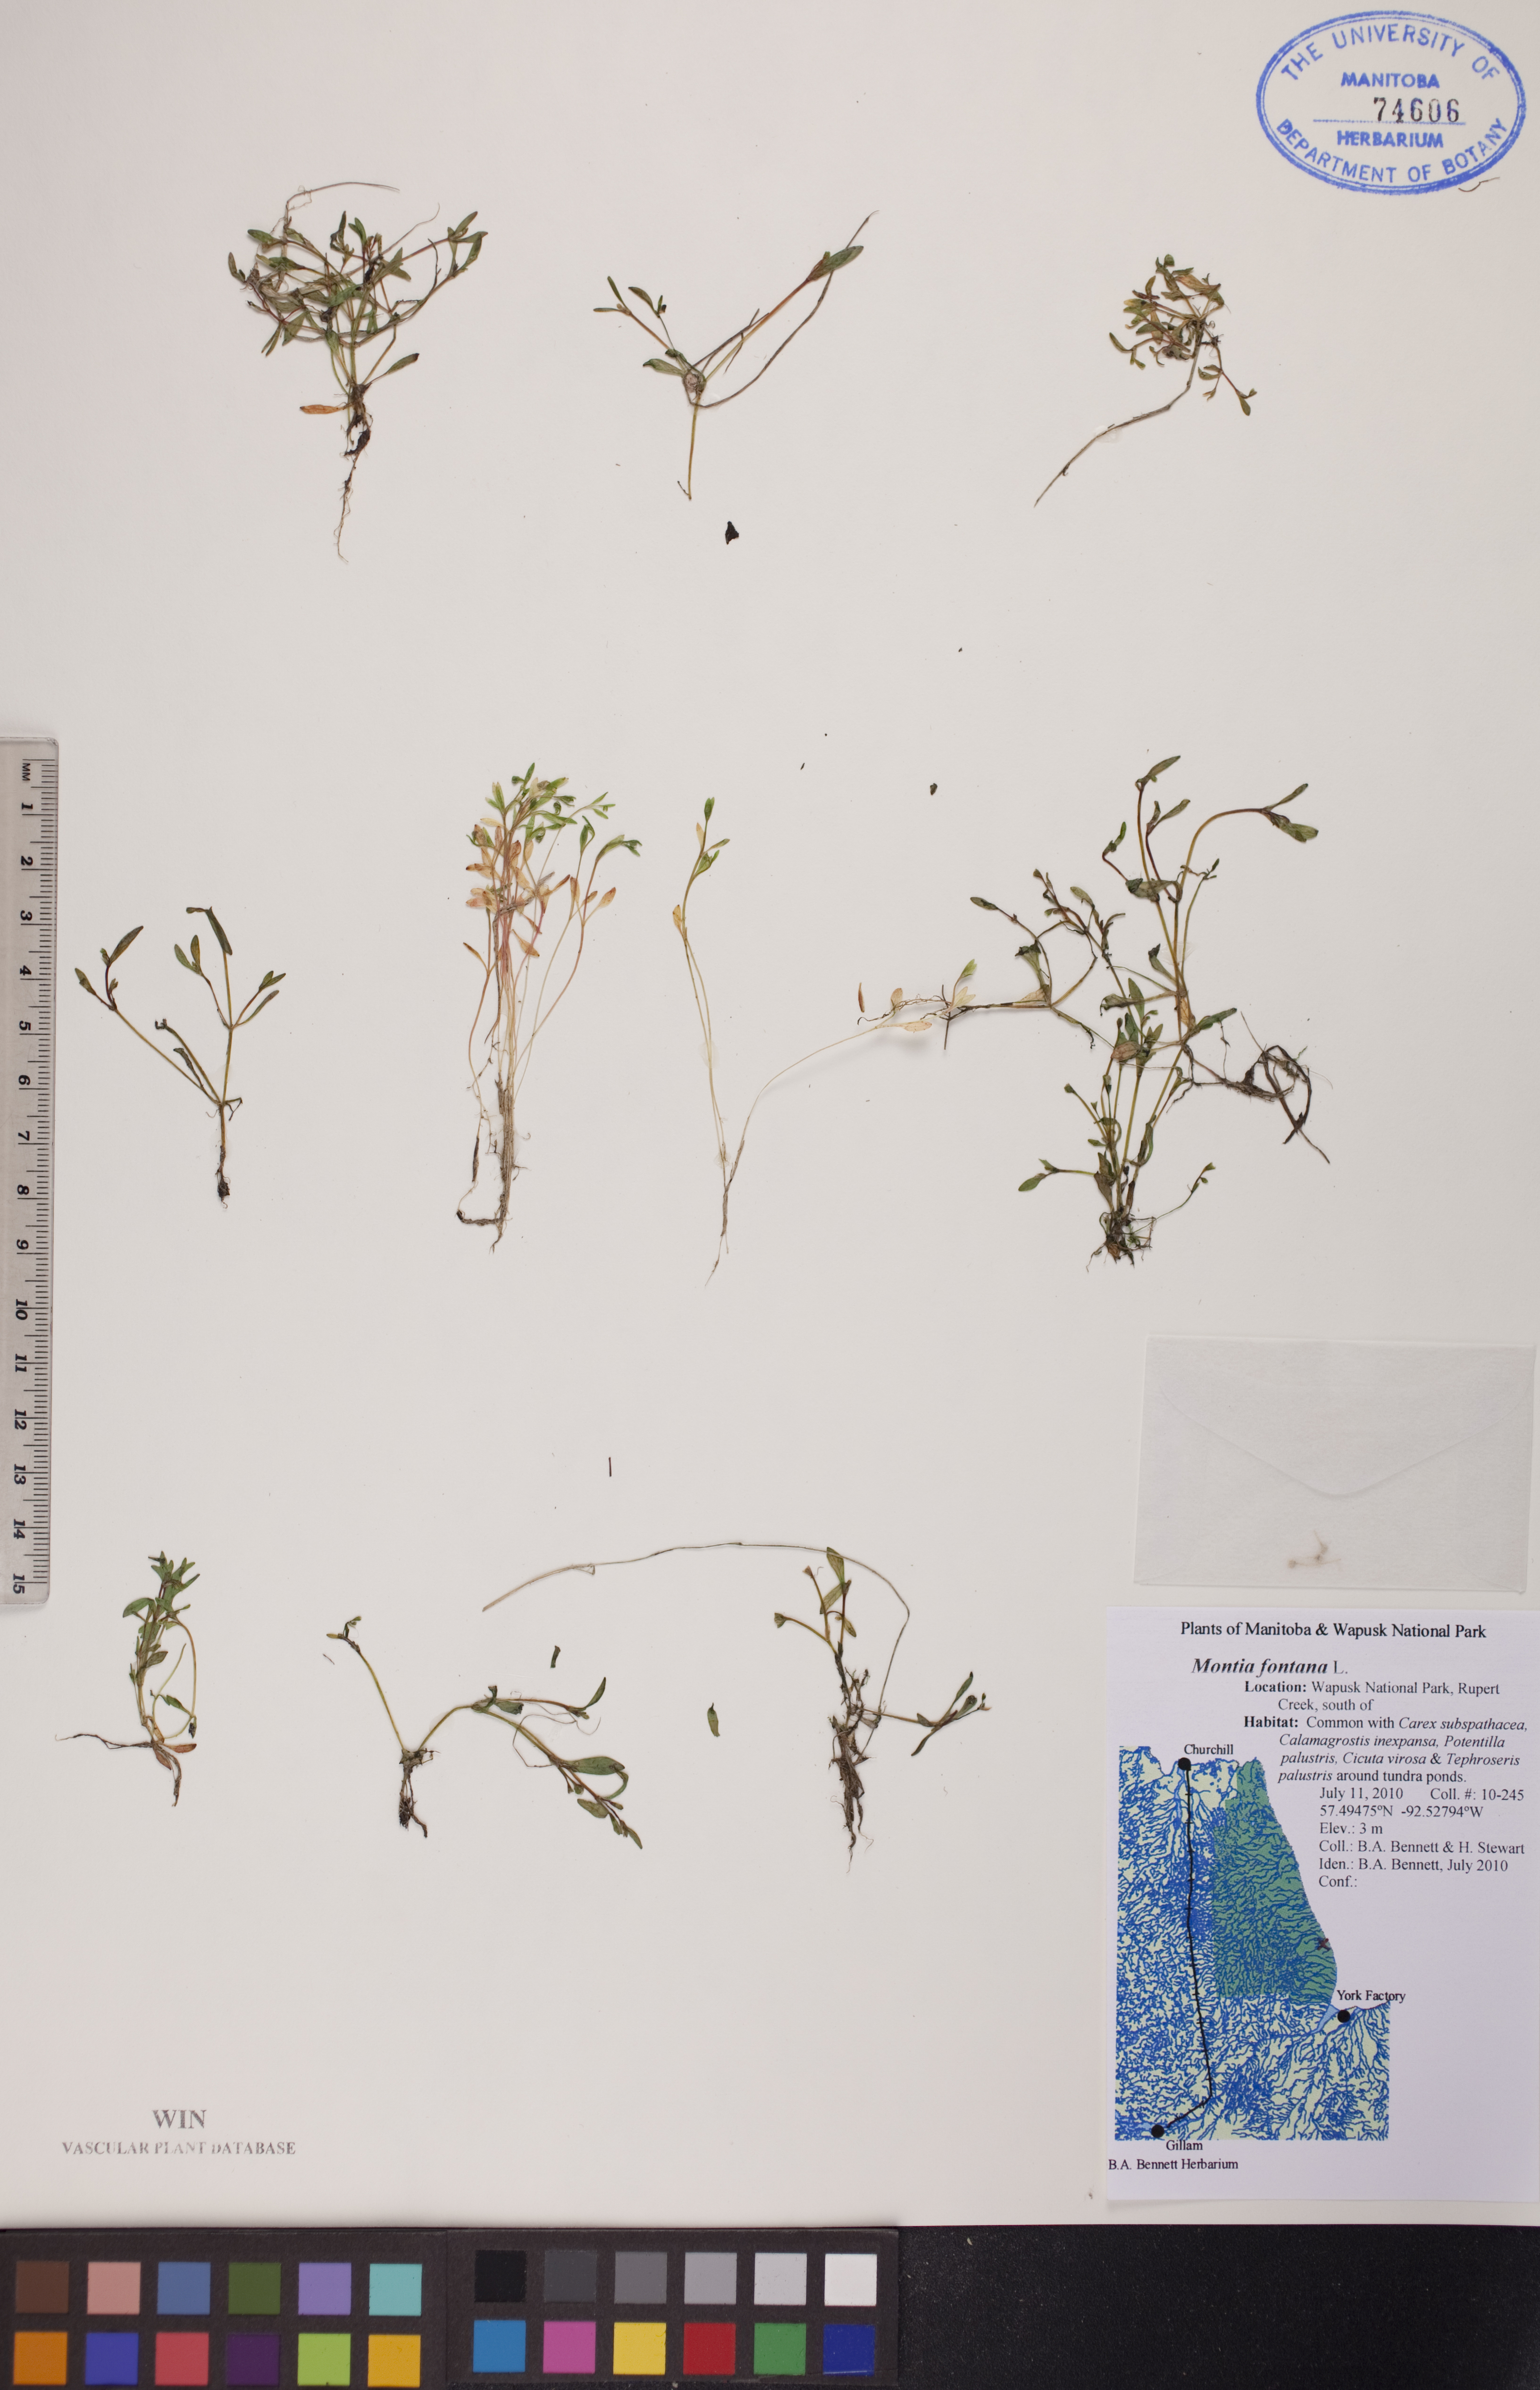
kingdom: Plantae
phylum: Tracheophyta
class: Magnoliopsida
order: Caryophyllales
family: Montiaceae
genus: Montia
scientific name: Montia fontana
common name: Blinks
